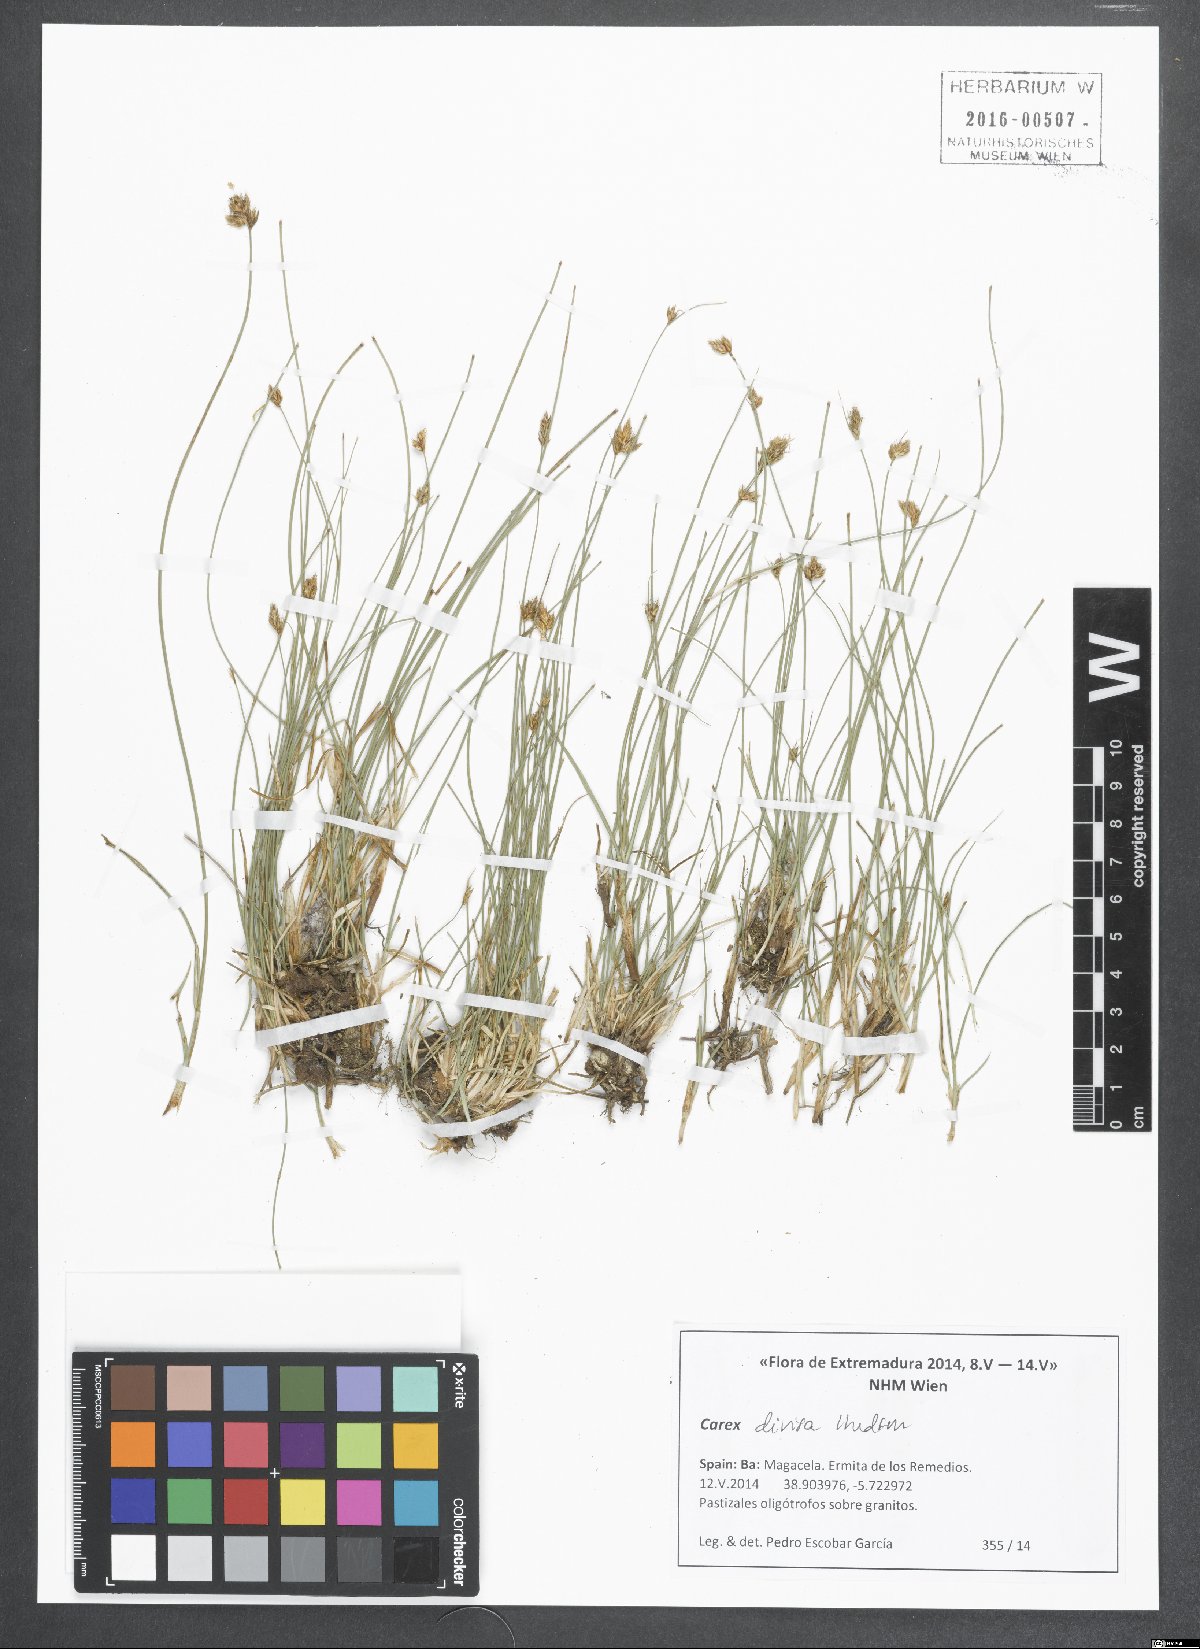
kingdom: Plantae
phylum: Tracheophyta
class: Liliopsida
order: Poales
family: Cyperaceae
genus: Carex
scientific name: Carex divisa
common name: Divided sedge
